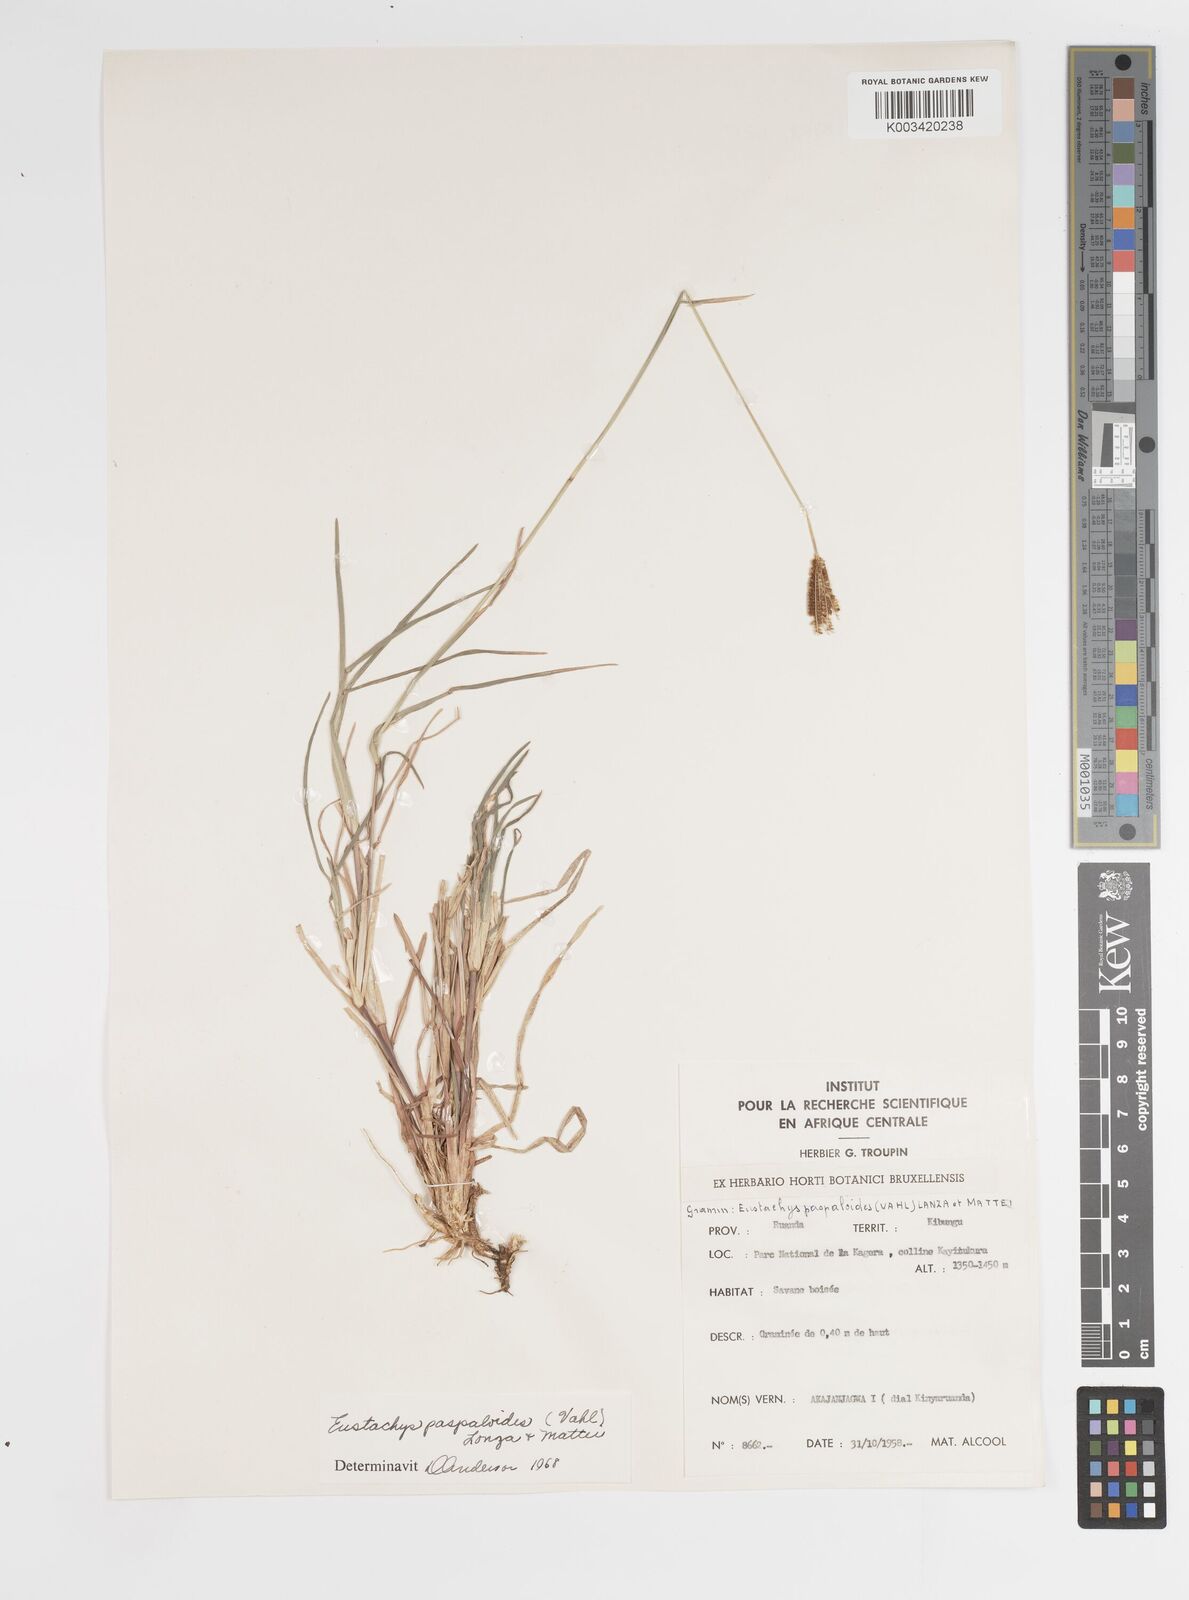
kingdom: Plantae
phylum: Tracheophyta
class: Liliopsida
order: Poales
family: Poaceae
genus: Eustachys
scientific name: Eustachys paspaloides
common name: Caribbean fingergrass
